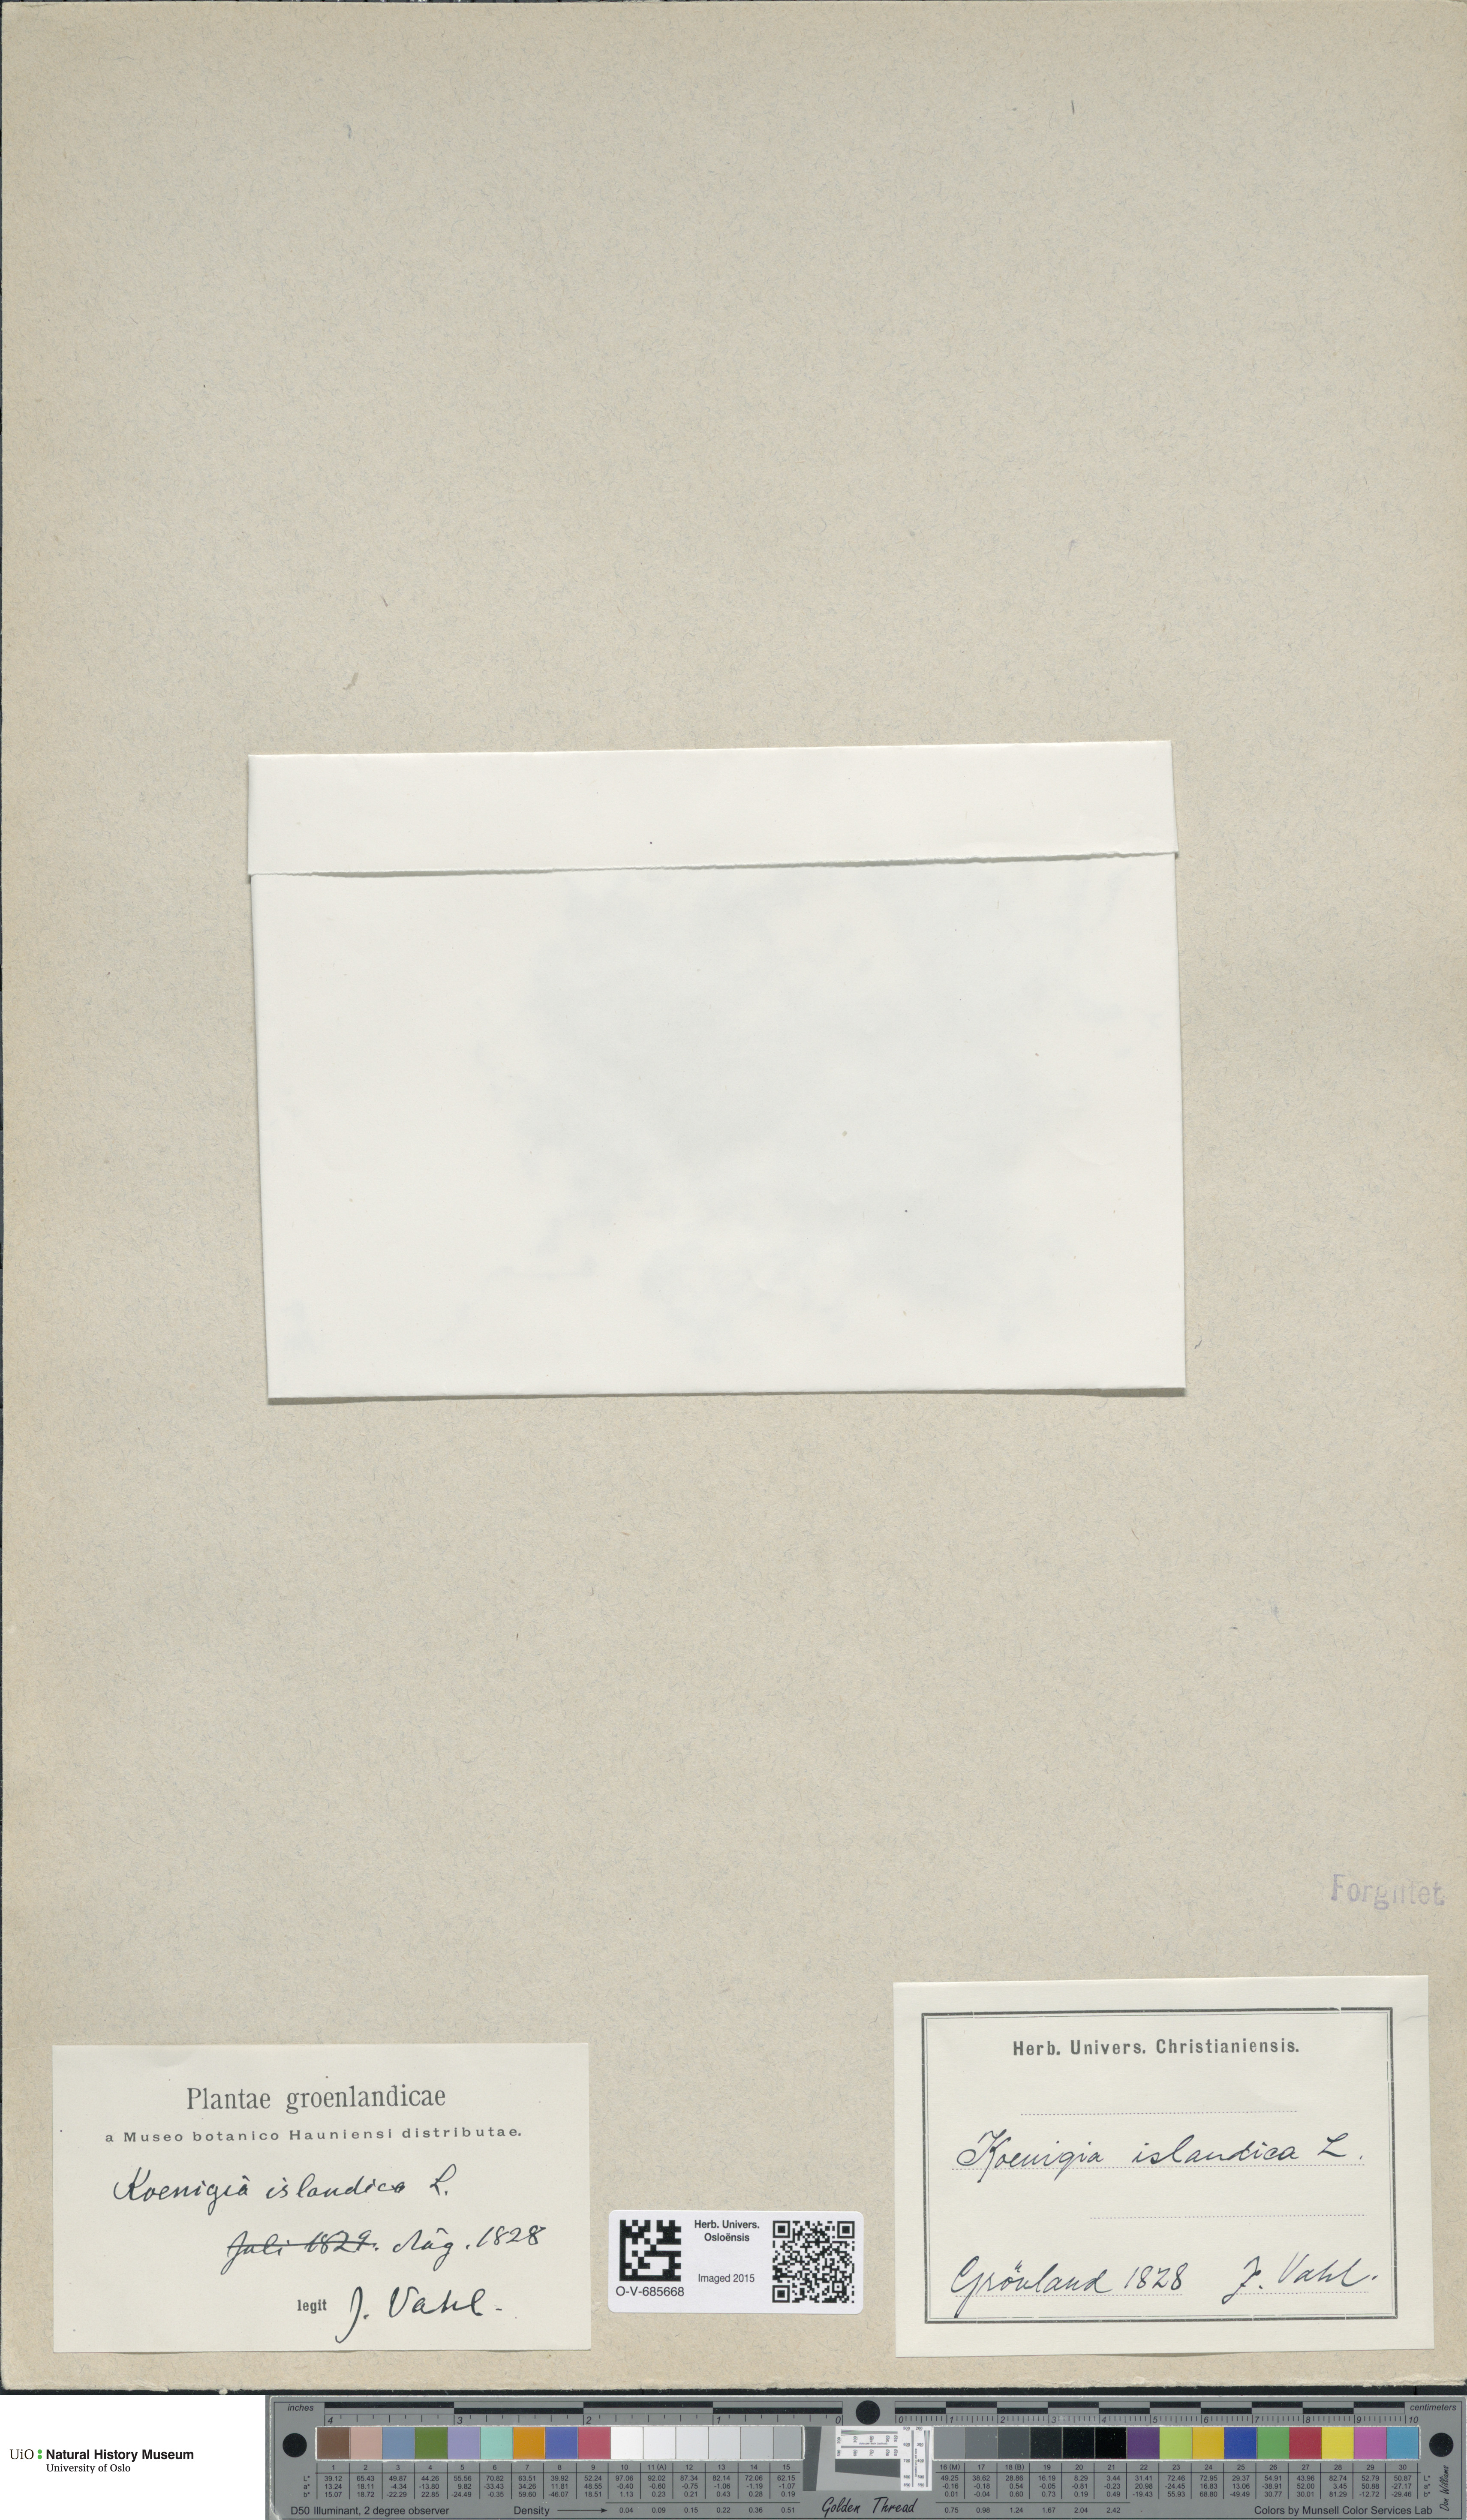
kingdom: Plantae
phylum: Tracheophyta
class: Magnoliopsida
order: Caryophyllales
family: Polygonaceae
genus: Koenigia
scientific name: Koenigia islandica
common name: Iceland-purslane
